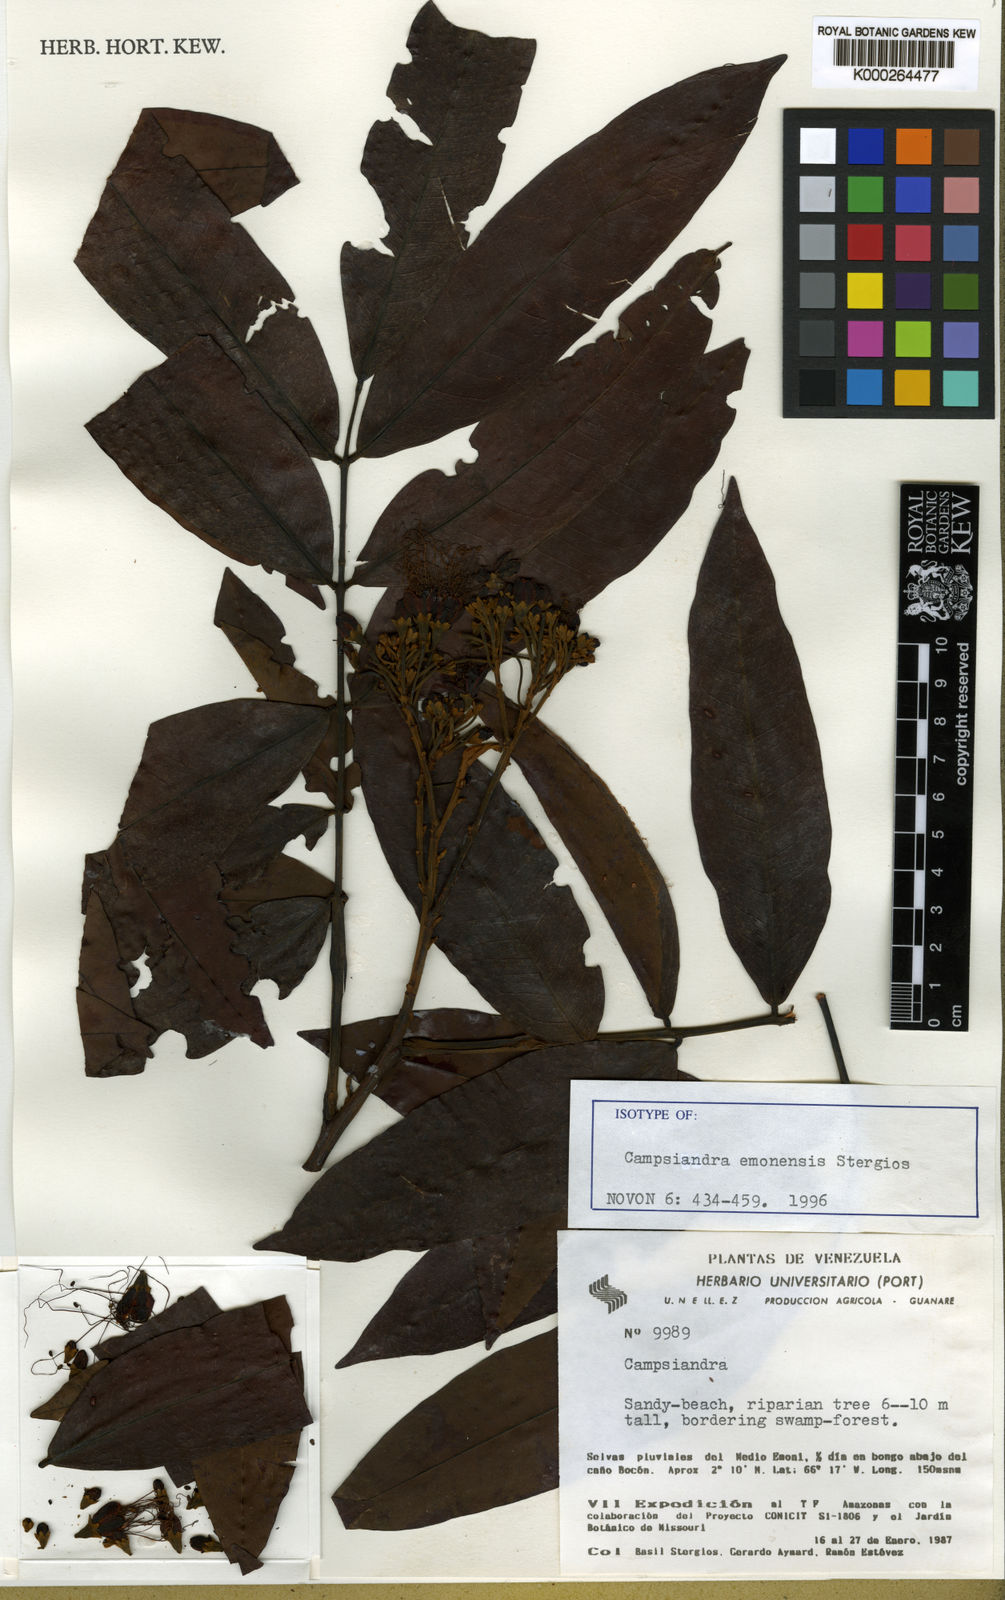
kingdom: Plantae
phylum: Tracheophyta
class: Magnoliopsida
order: Fabales
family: Fabaceae
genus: Campsiandra
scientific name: Campsiandra emonensis
